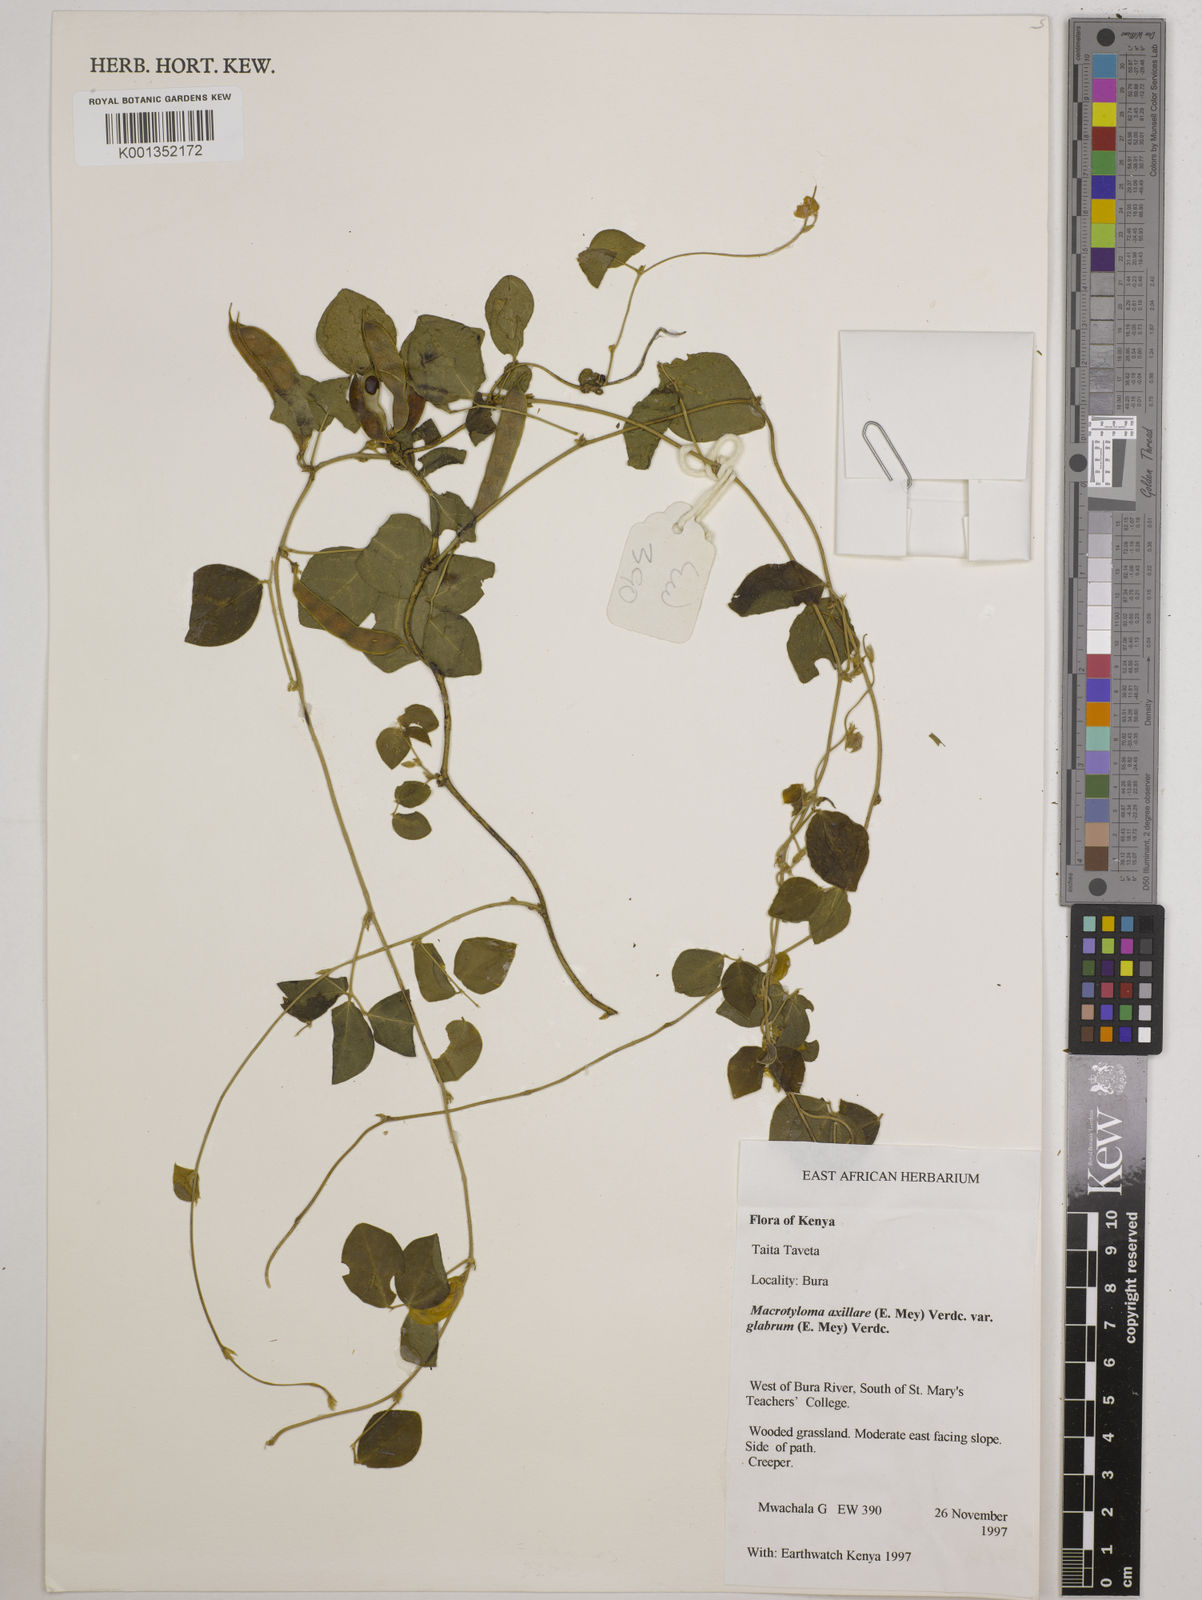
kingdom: Plantae
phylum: Tracheophyta
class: Magnoliopsida
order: Fabales
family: Fabaceae
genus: Macrotyloma
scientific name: Macrotyloma
